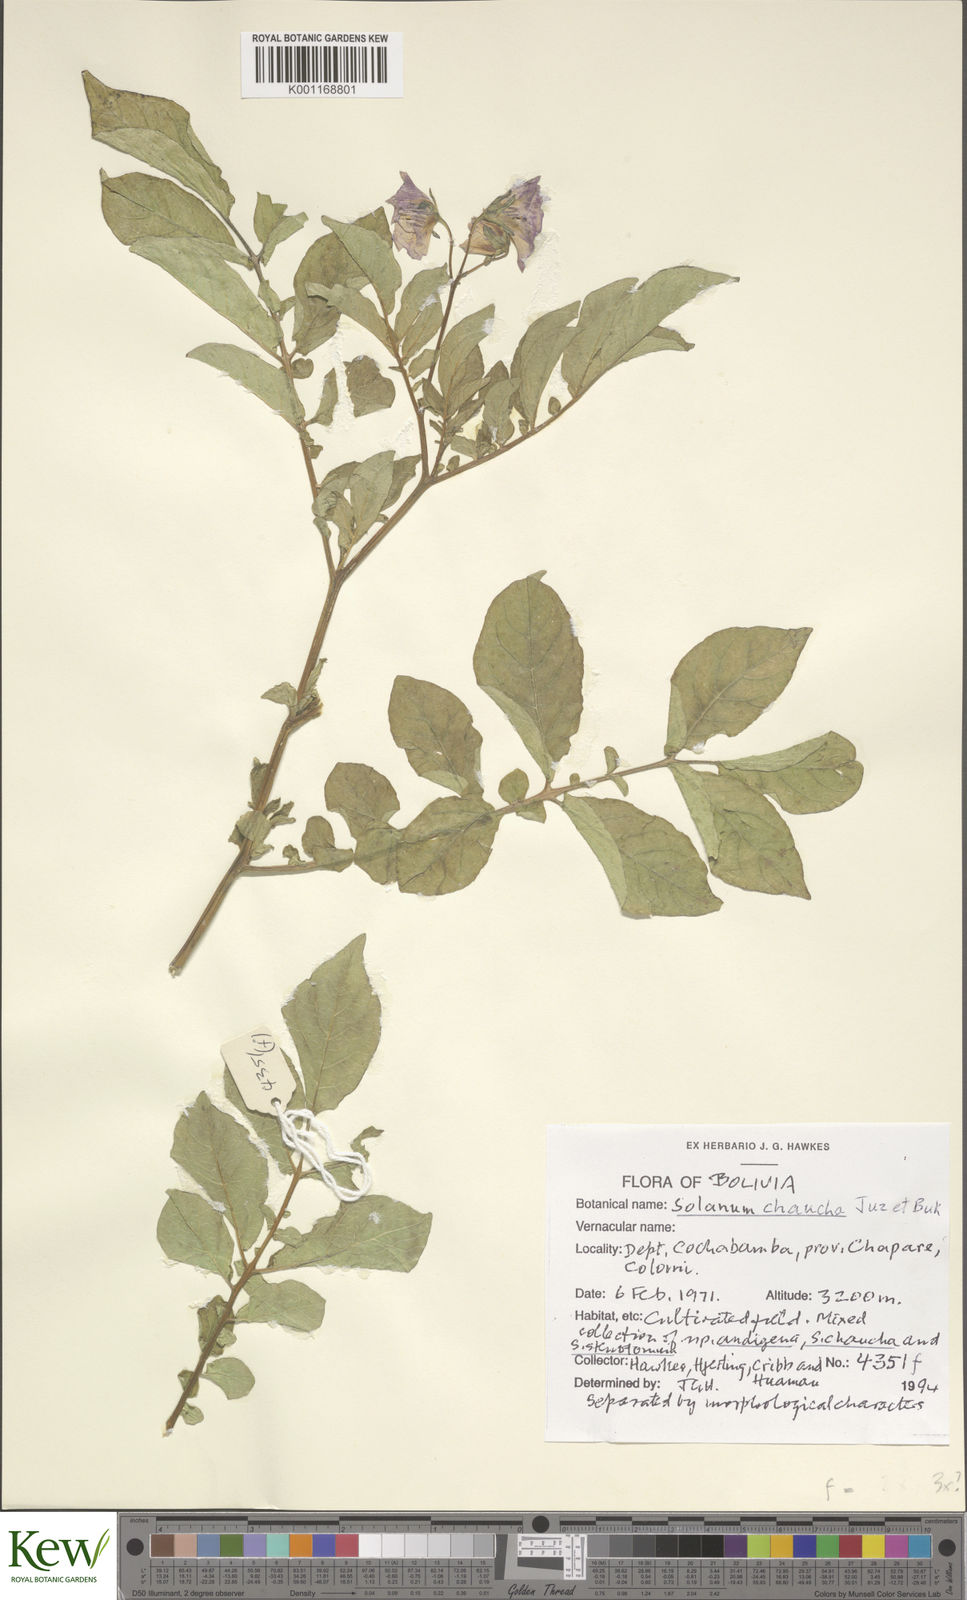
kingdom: Plantae
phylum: Tracheophyta
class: Magnoliopsida
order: Solanales
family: Solanaceae
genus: Solanum
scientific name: Solanum chaucha
